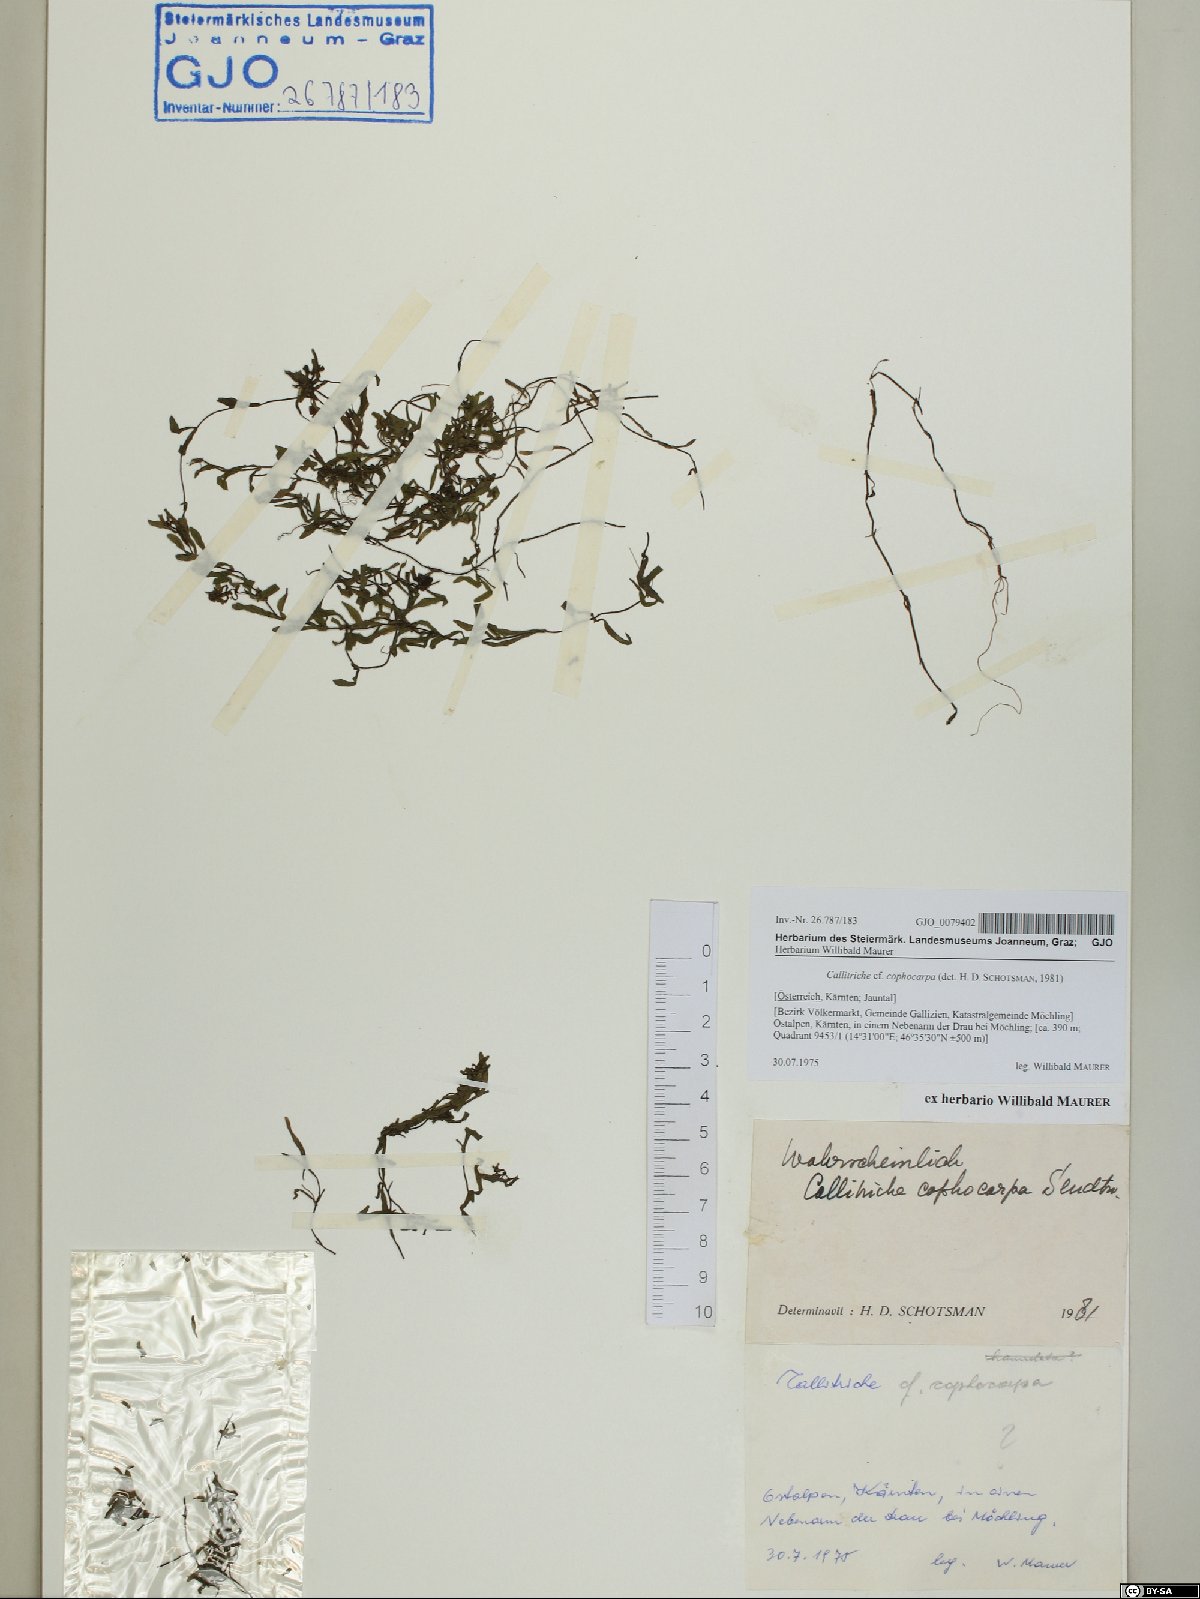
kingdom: Plantae
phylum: Tracheophyta
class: Magnoliopsida
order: Lamiales
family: Plantaginaceae
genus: Callitriche
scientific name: Callitriche cophocarpa
